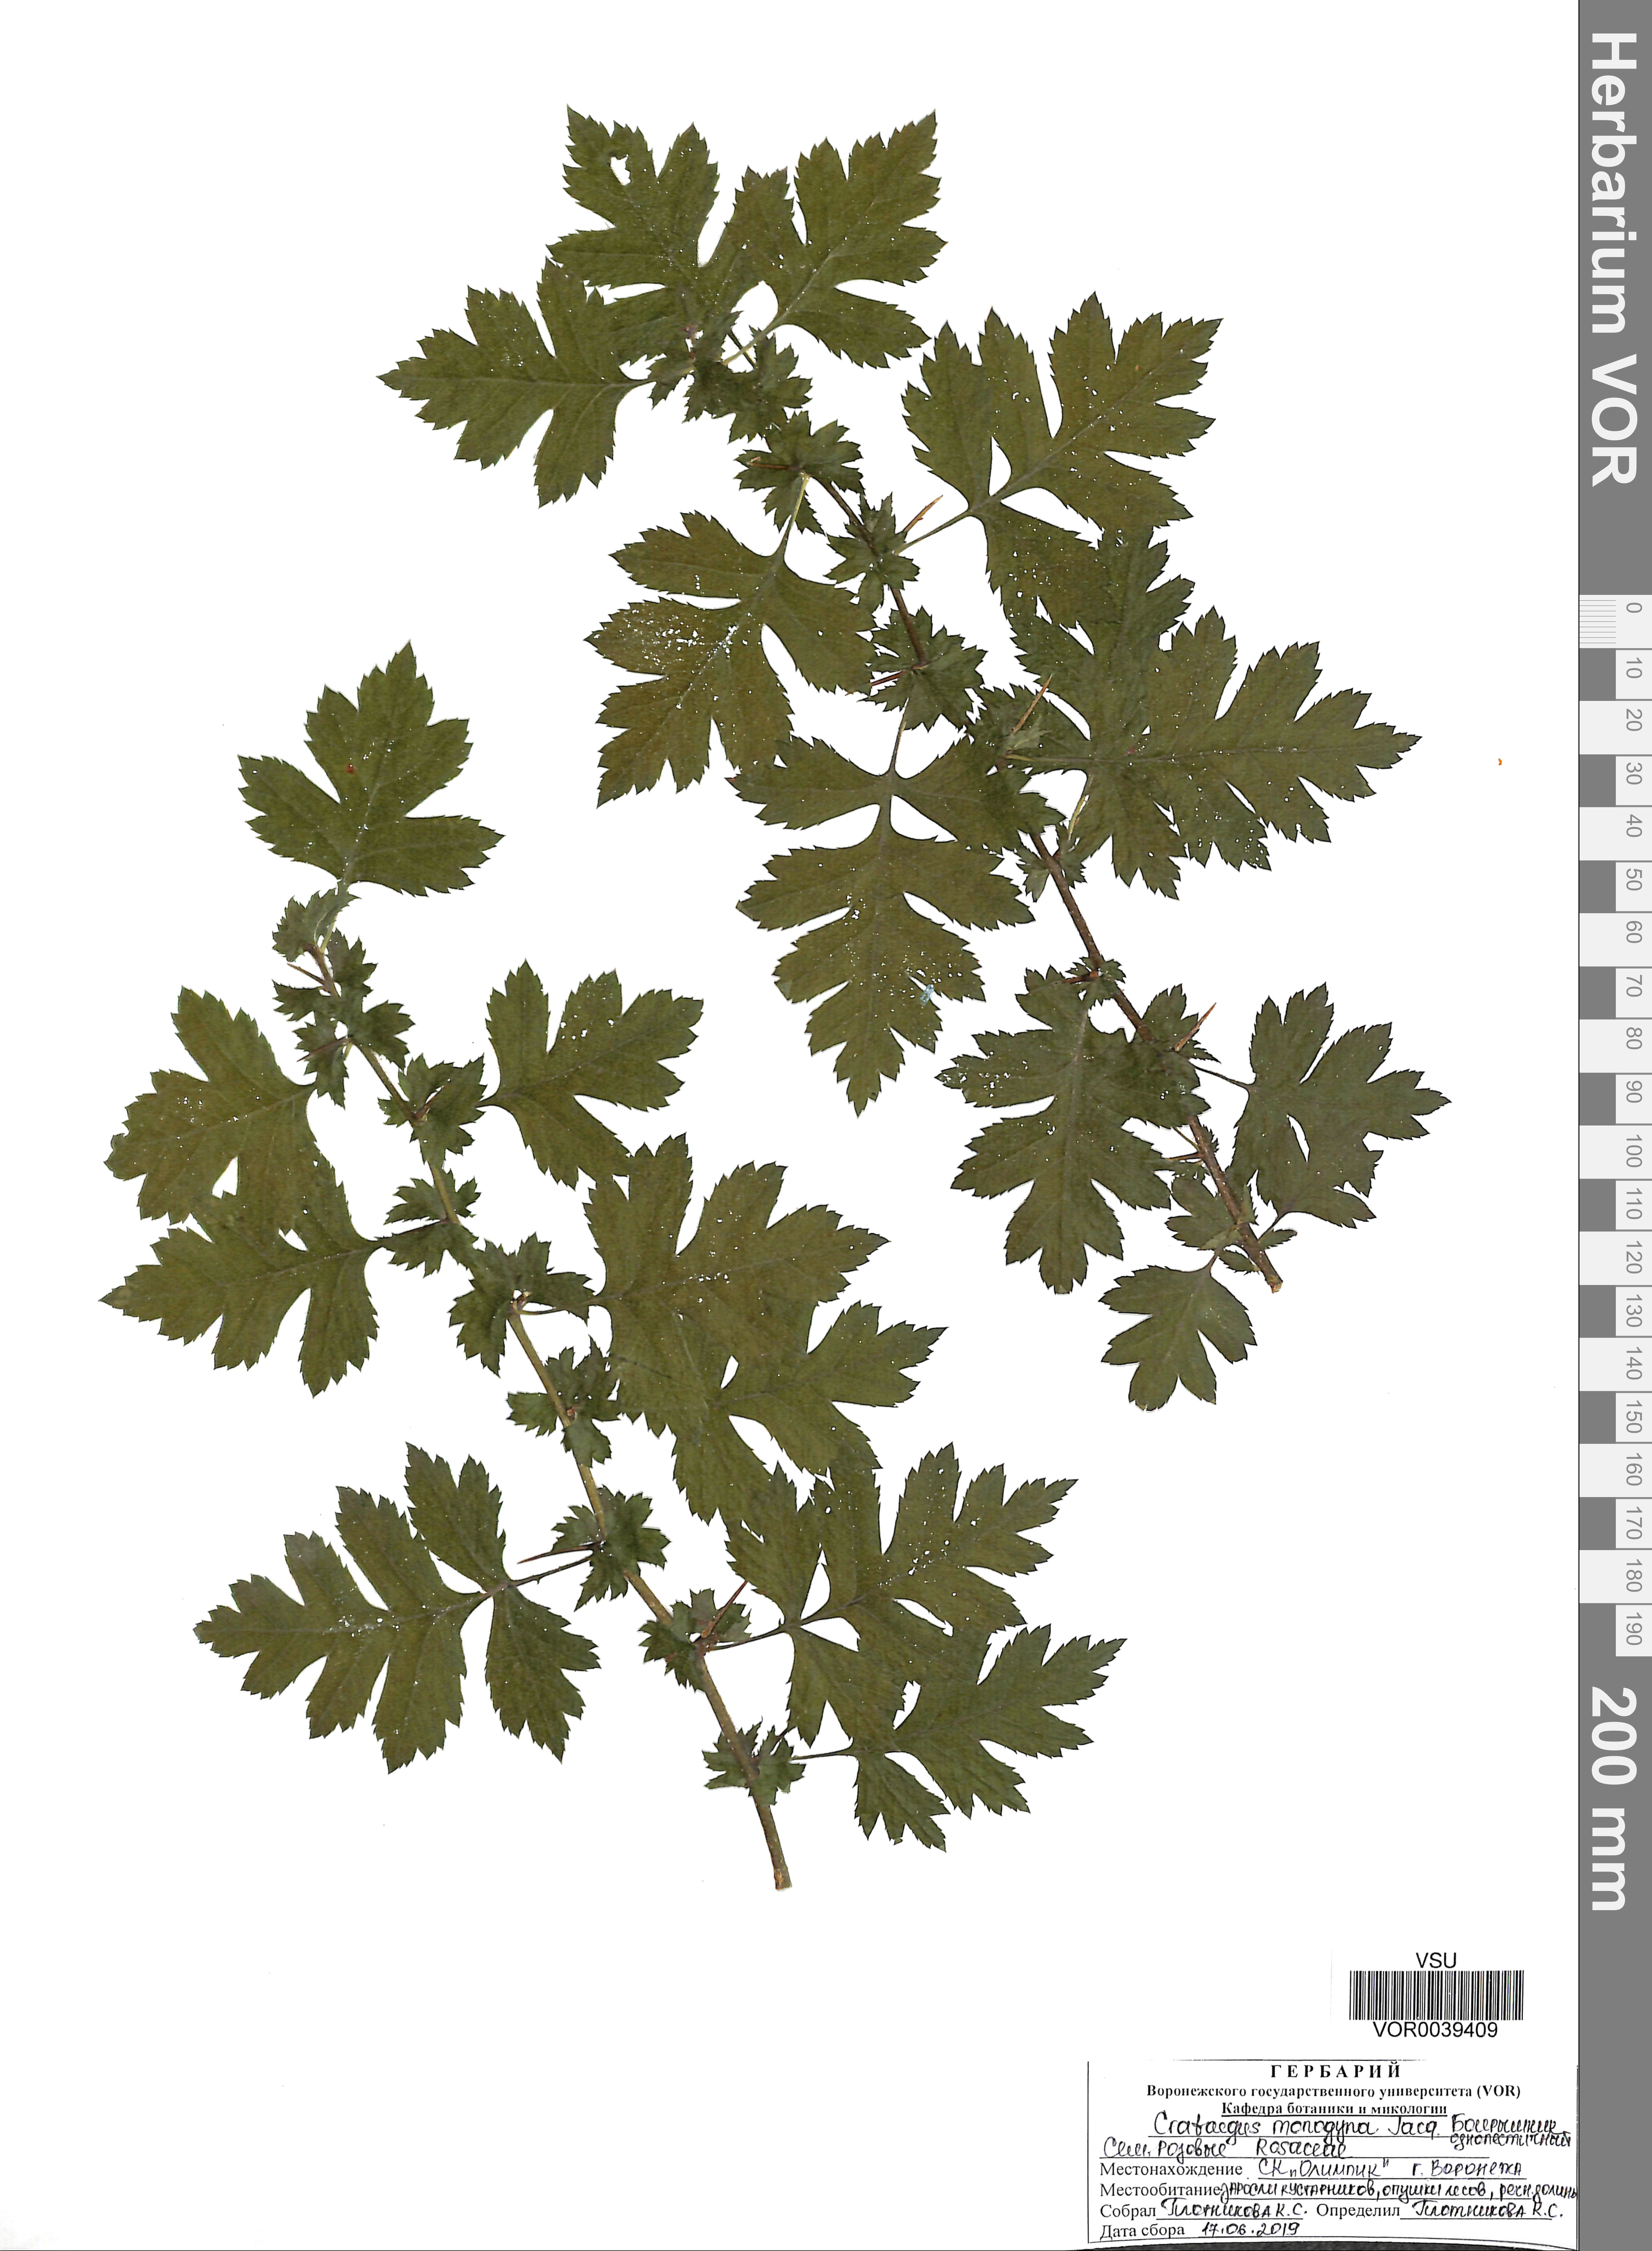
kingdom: Plantae
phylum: Tracheophyta
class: Magnoliopsida
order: Rosales
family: Rosaceae
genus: Crataegus
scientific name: Crataegus monogyna
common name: Hawthorn
